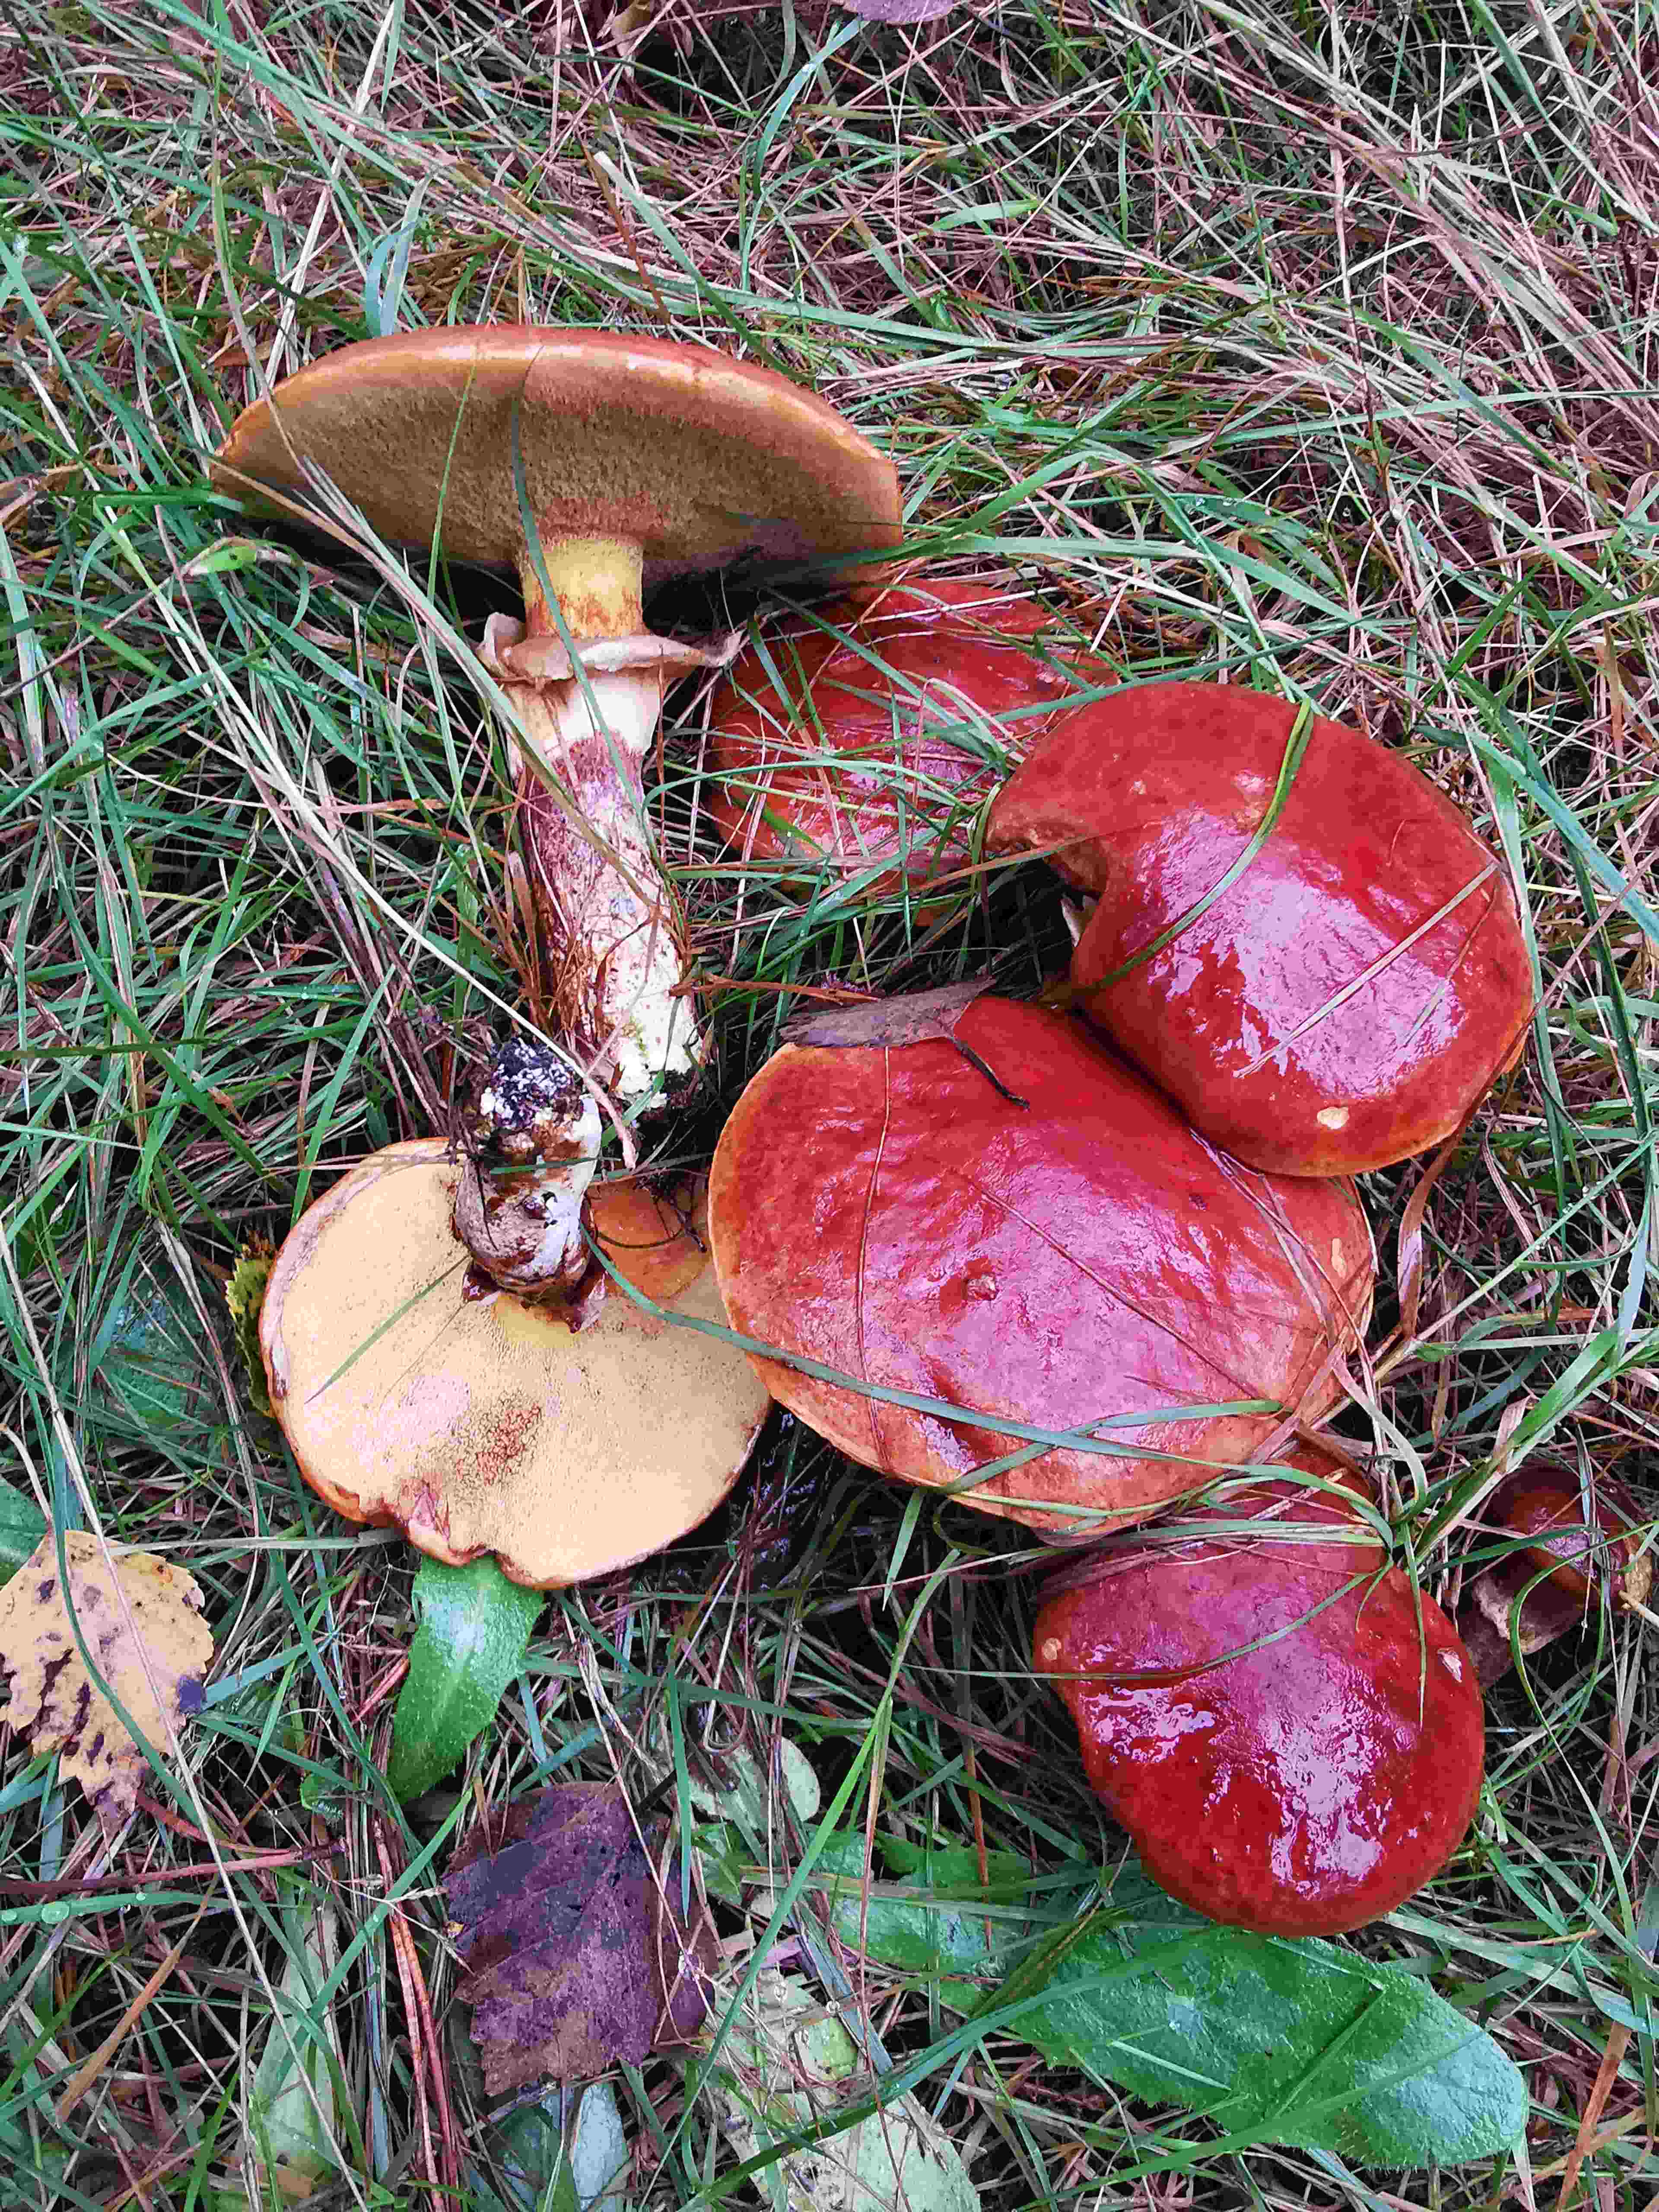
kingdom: Fungi
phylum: Basidiomycota
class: Agaricomycetes
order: Boletales
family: Suillaceae
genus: Suillus
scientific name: Suillus grevillei
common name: lærke-slimrørhat
